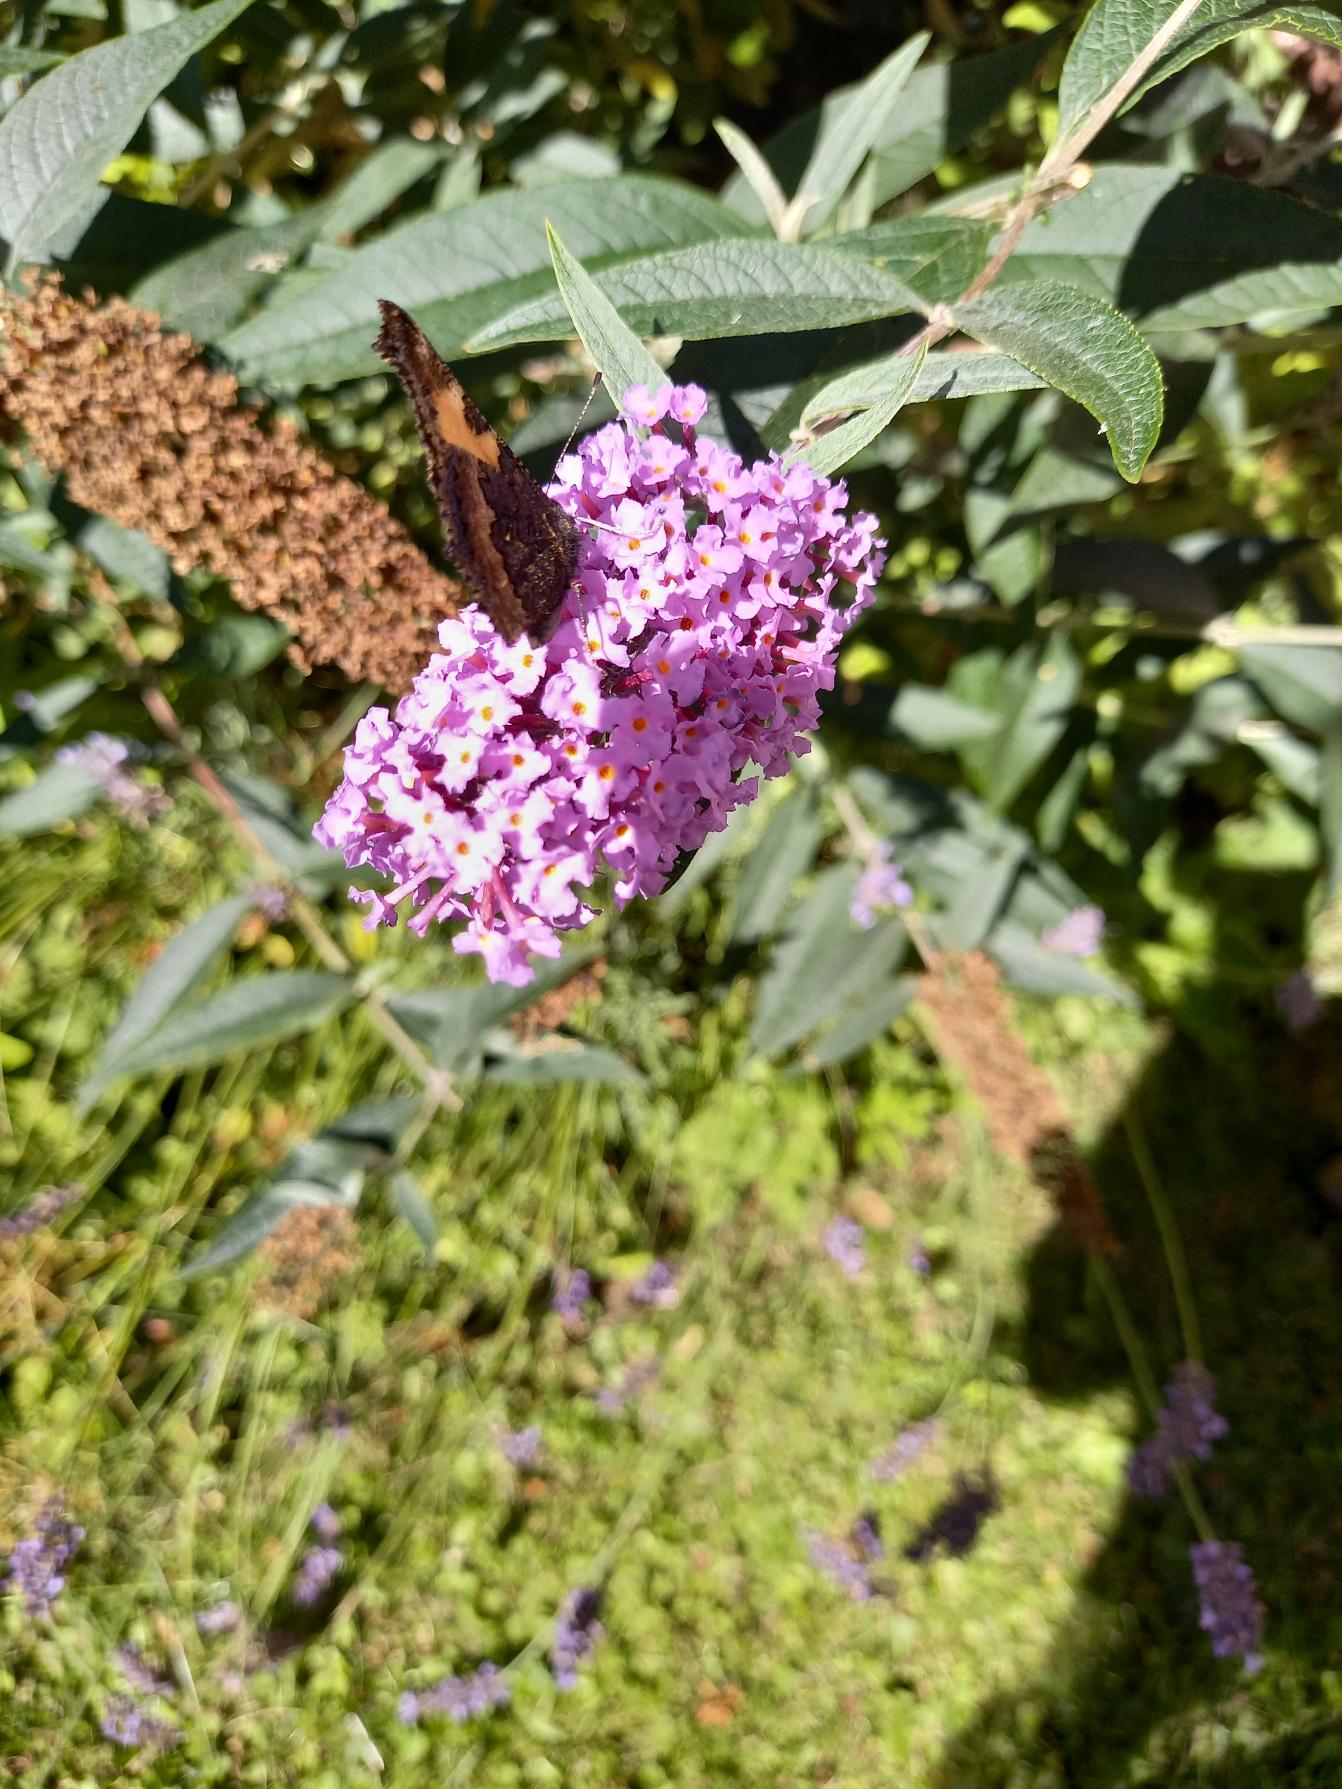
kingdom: Animalia
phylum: Arthropoda
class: Insecta
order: Lepidoptera
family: Nymphalidae
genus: Aglais
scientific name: Aglais urticae
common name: Nældens takvinge
